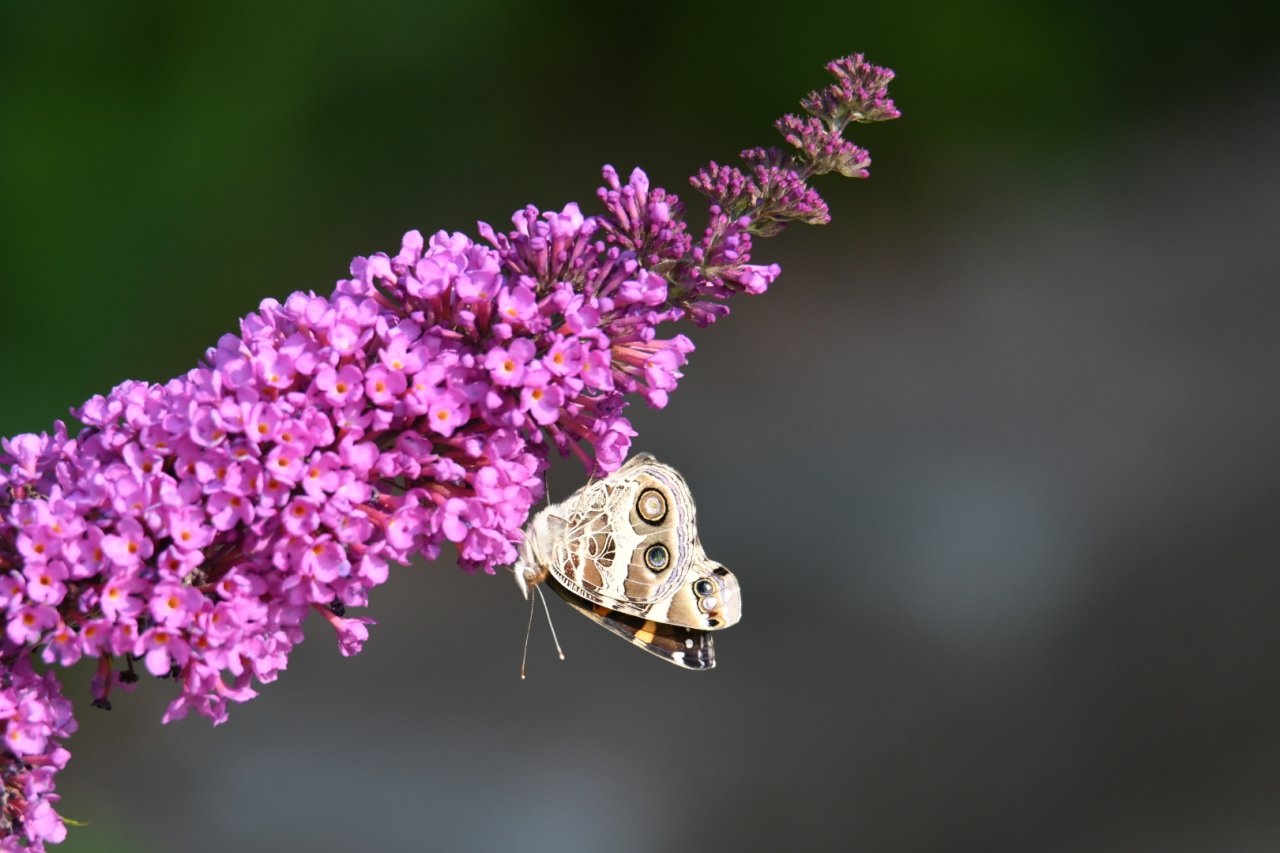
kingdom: Animalia
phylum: Arthropoda
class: Insecta
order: Lepidoptera
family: Nymphalidae
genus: Vanessa
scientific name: Vanessa virginiensis
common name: American Lady
